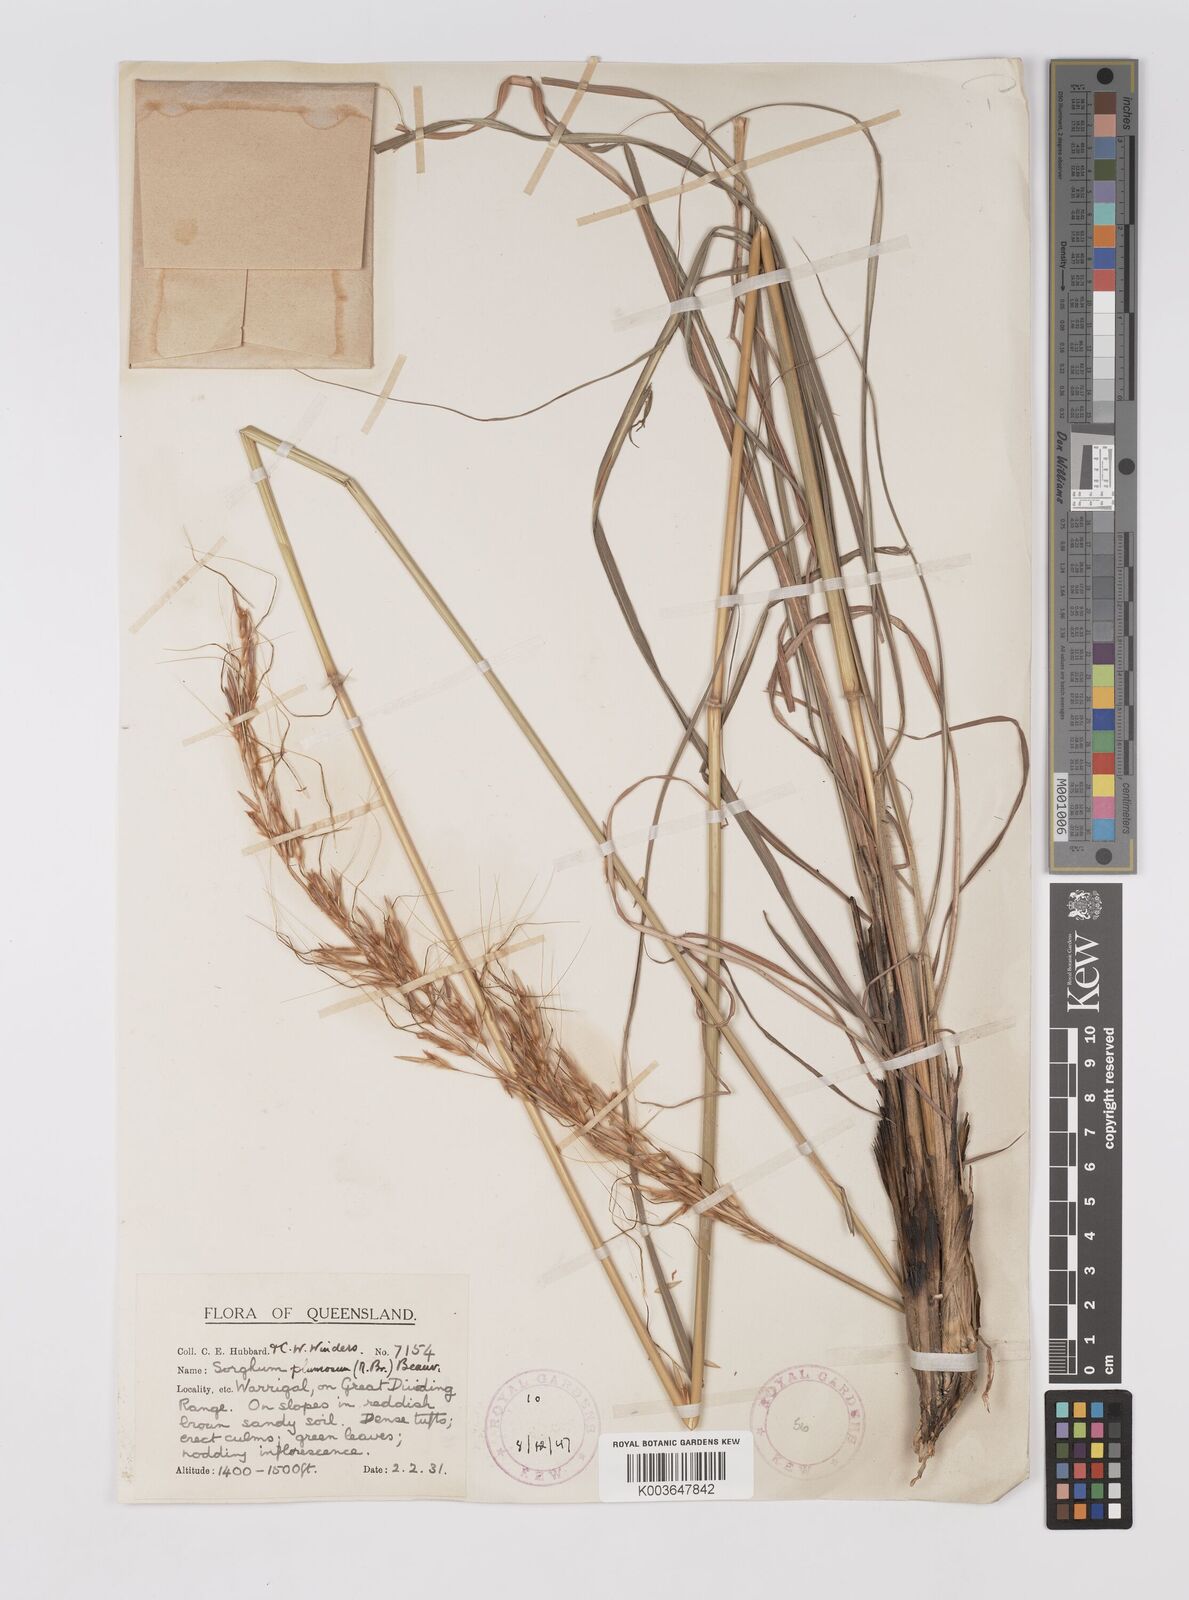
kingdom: Plantae
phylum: Tracheophyta
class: Liliopsida
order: Poales
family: Poaceae
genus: Sarga
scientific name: Sarga plumosa
